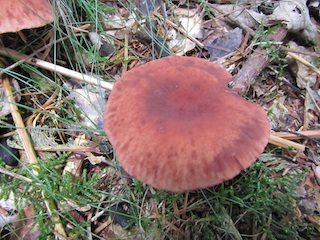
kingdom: Fungi
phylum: Basidiomycota
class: Agaricomycetes
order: Russulales
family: Russulaceae
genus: Lactarius
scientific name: Lactarius camphoratus
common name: kamfer-mælkehat
